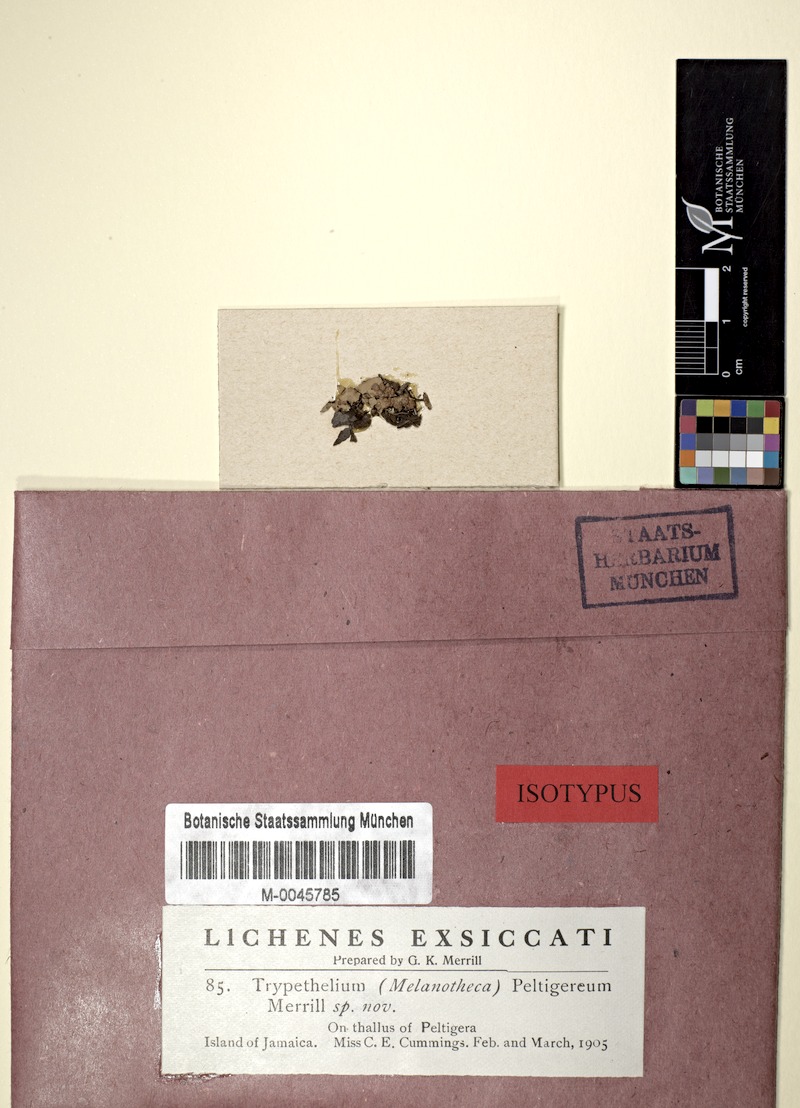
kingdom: Fungi
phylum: Ascomycota
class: Lecanoromycetes
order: Peltigerales
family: Peltigeraceae
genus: Peltigera
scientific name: Peltigera
